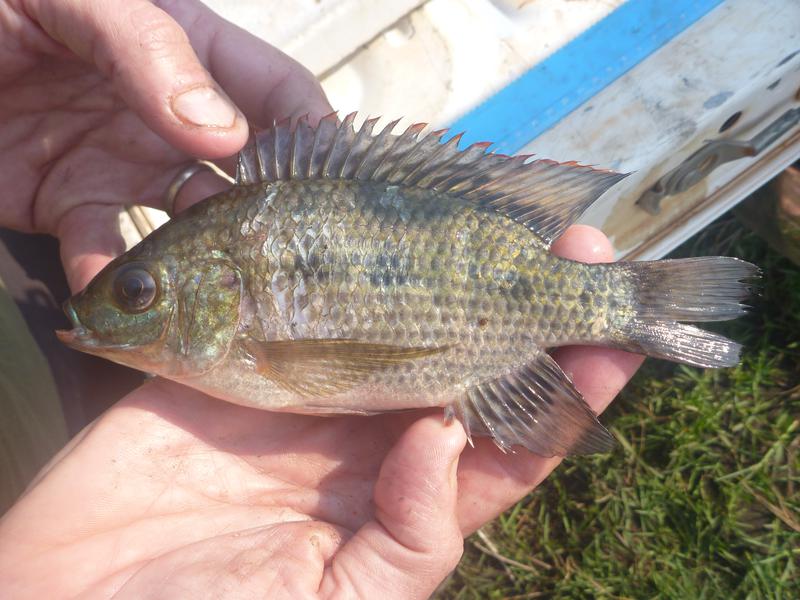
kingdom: Animalia
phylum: Chordata
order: Perciformes
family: Cichlidae
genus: Oreochromis
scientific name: Oreochromis upembae
